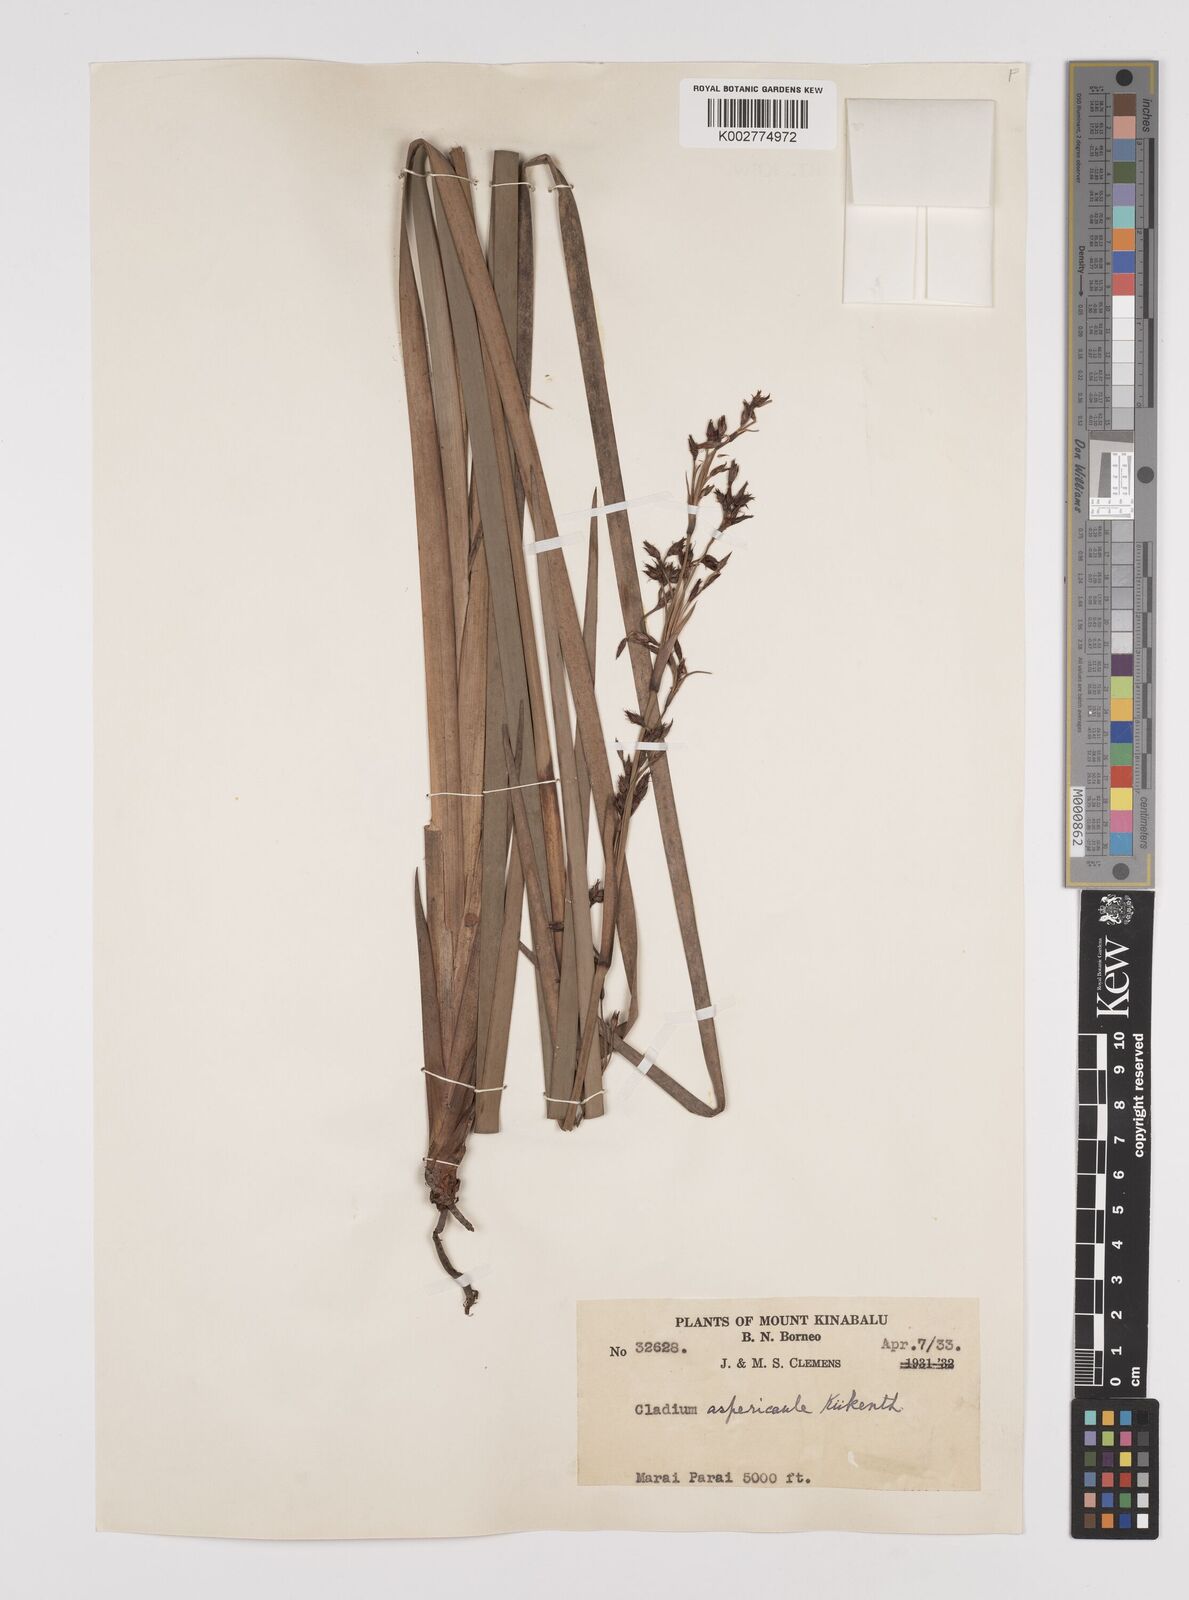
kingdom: Plantae
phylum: Tracheophyta
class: Liliopsida
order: Poales
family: Cyperaceae
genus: Machaerina
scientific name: Machaerina aspericaulis
